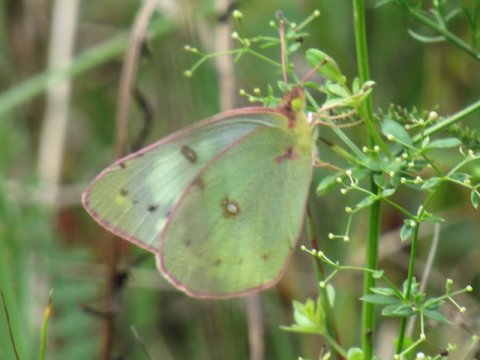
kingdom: Animalia
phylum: Arthropoda
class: Insecta
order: Lepidoptera
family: Pieridae
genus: Colias
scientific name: Colias philodice
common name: Clouded Sulphur
